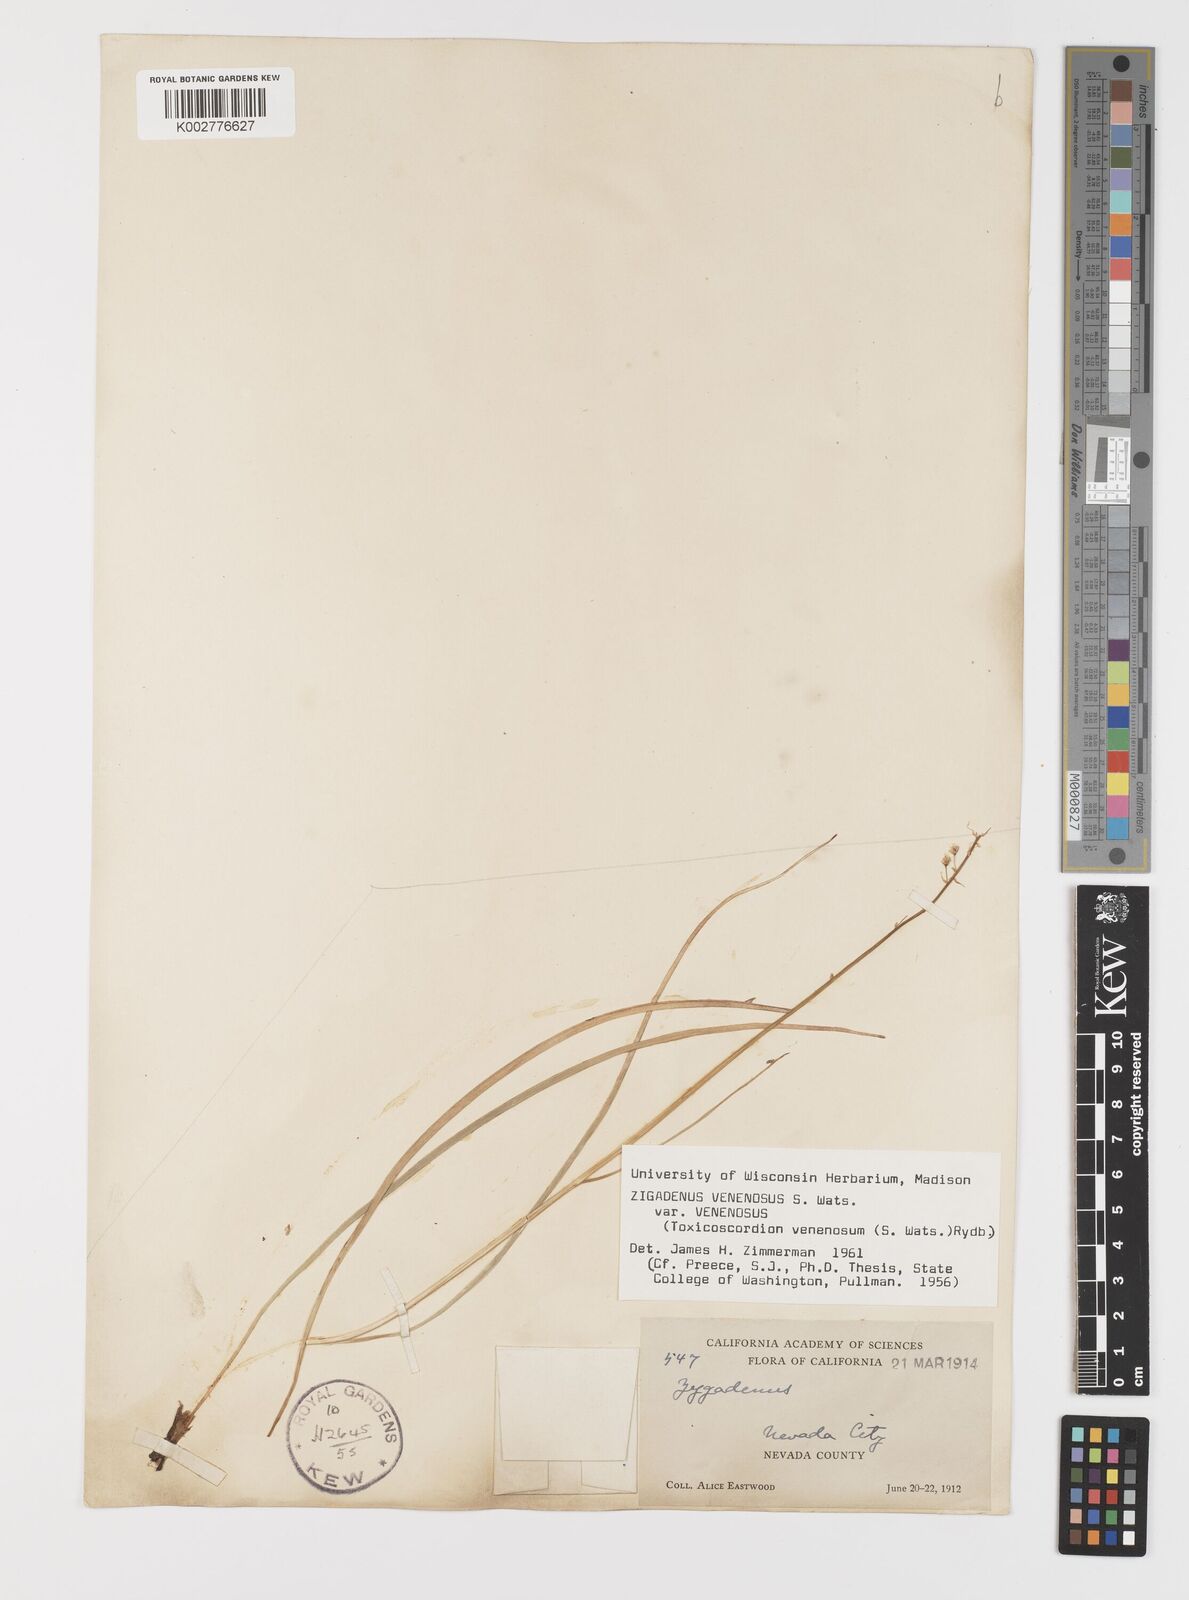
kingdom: Plantae
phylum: Tracheophyta
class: Liliopsida
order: Liliales
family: Melanthiaceae
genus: Toxicoscordion
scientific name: Toxicoscordion venenosum
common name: Meadow death camas
